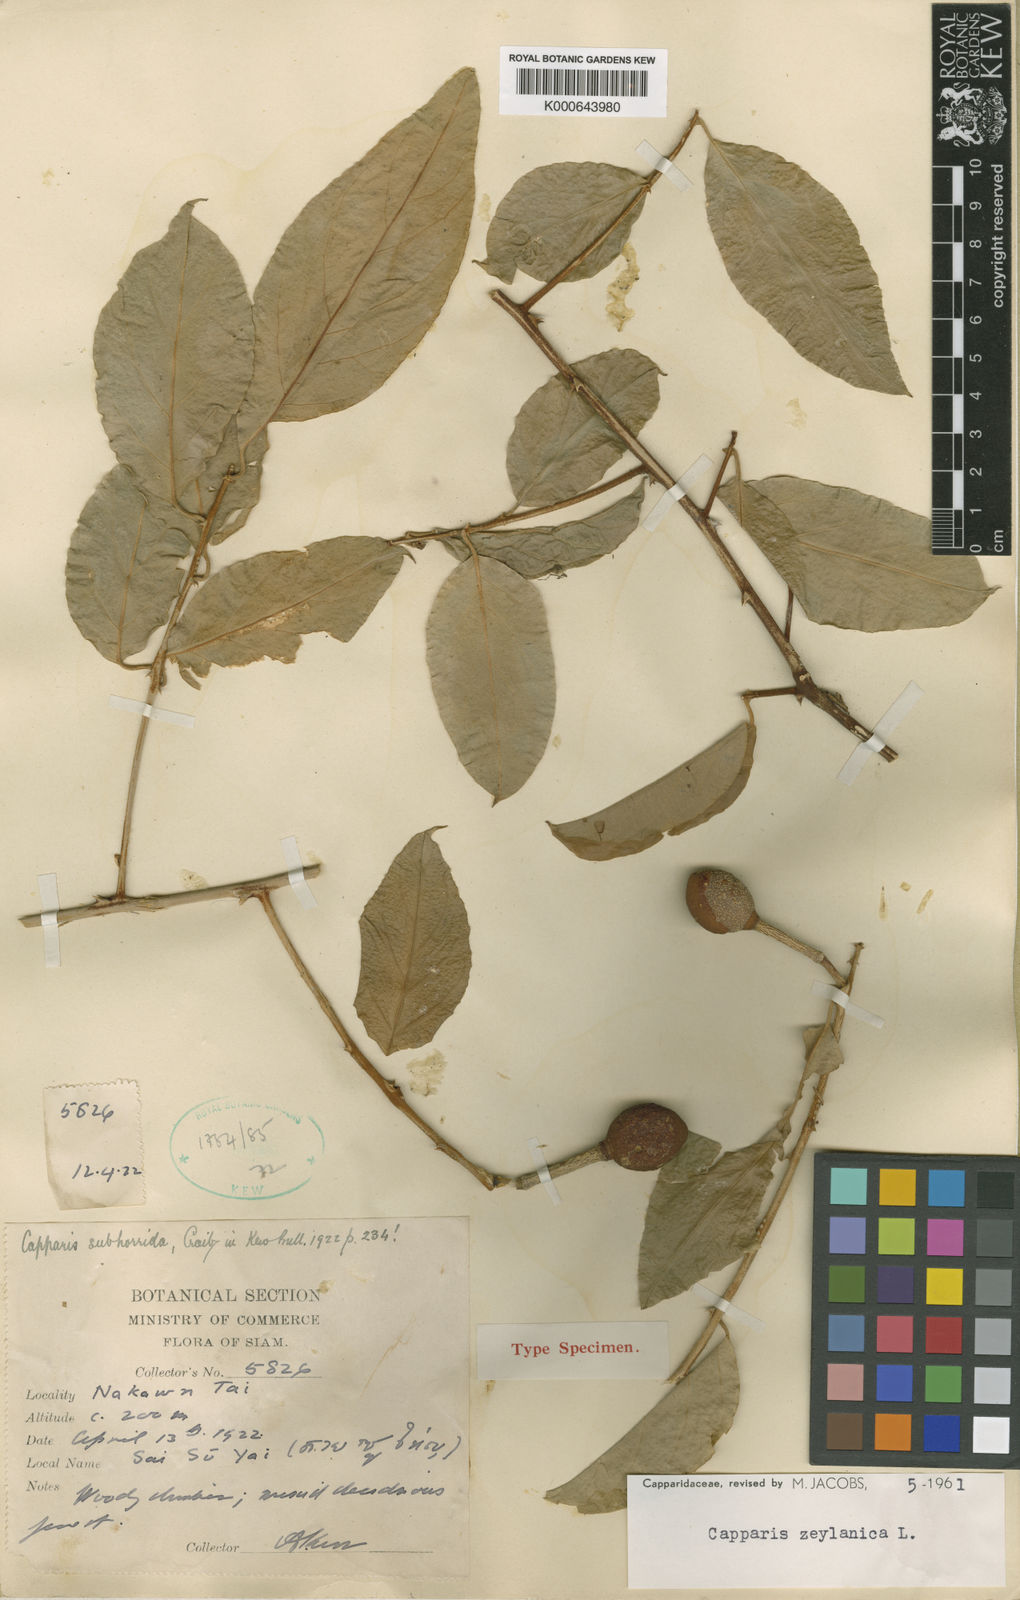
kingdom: Plantae
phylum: Tracheophyta
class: Magnoliopsida
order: Brassicales
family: Capparaceae
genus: Capparis
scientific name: Capparis zeylanica
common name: Ceylon caper
